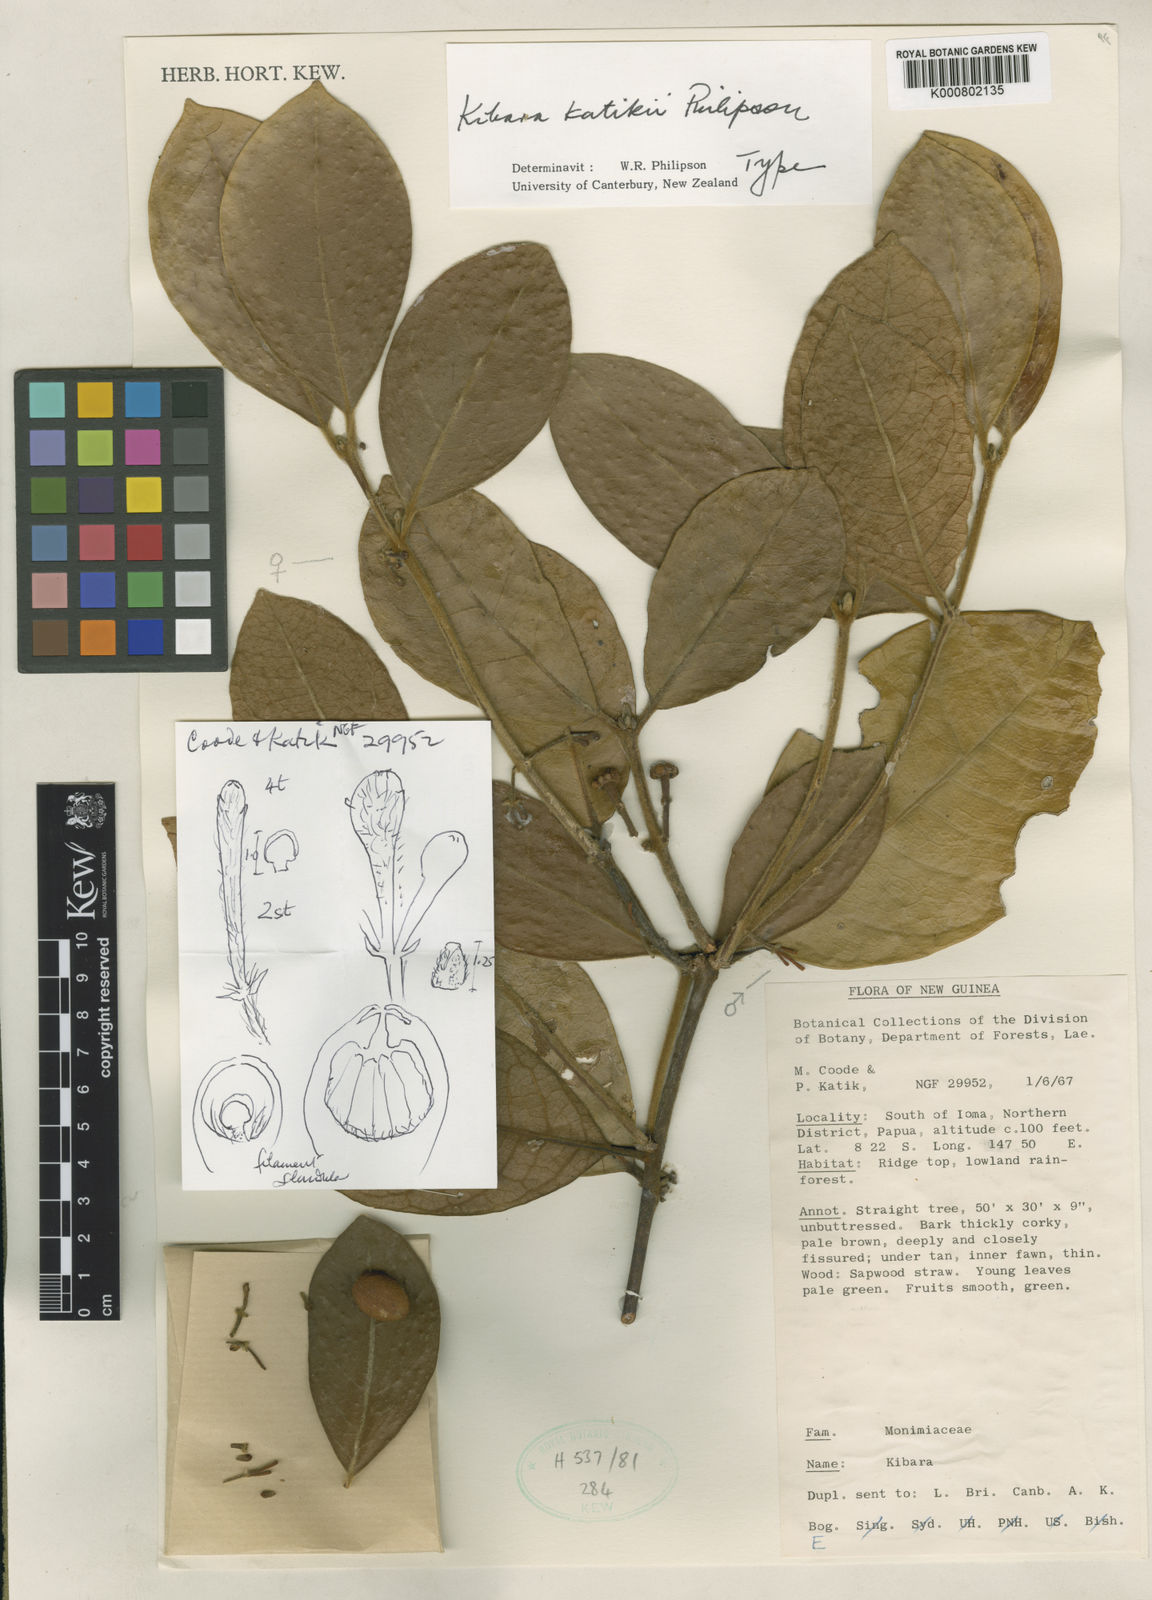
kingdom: Plantae
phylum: Tracheophyta
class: Magnoliopsida
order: Laurales
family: Monimiaceae
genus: Kibara
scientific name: Kibara katikii
